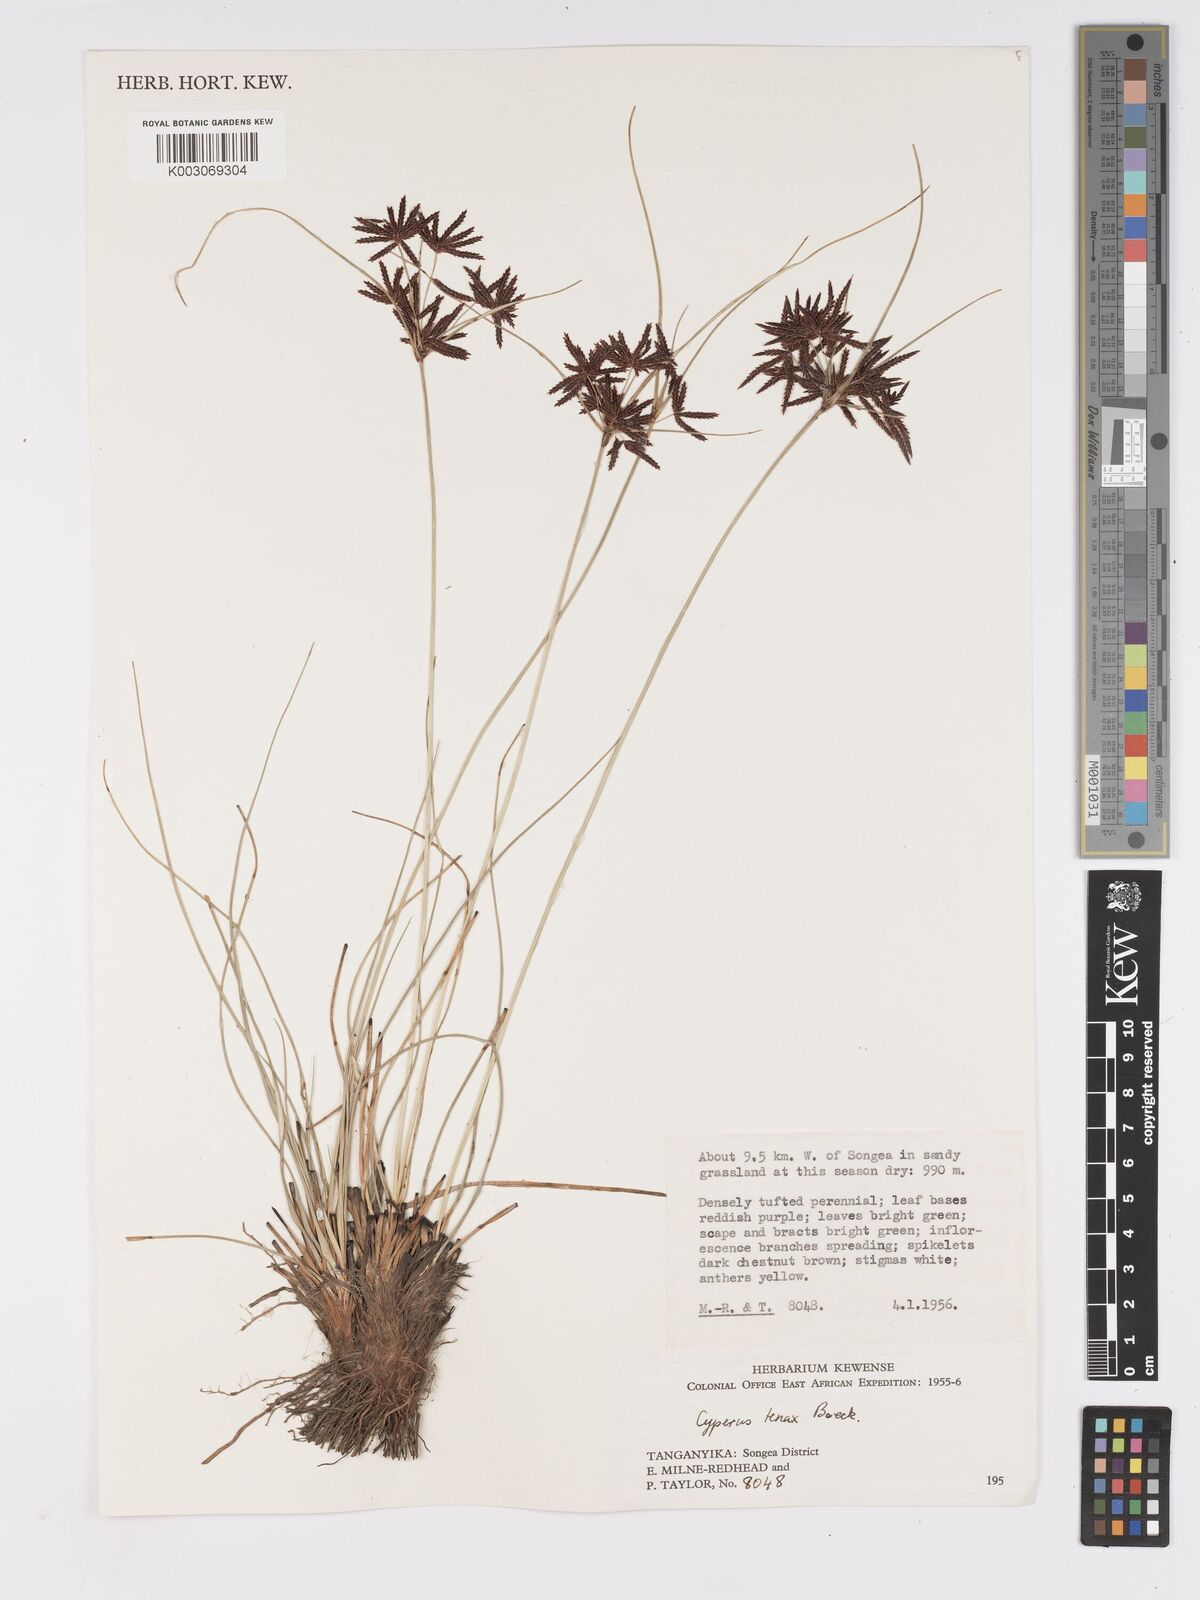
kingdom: Plantae
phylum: Tracheophyta
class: Liliopsida
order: Poales
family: Cyperaceae
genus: Cyperus
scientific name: Cyperus tenax
